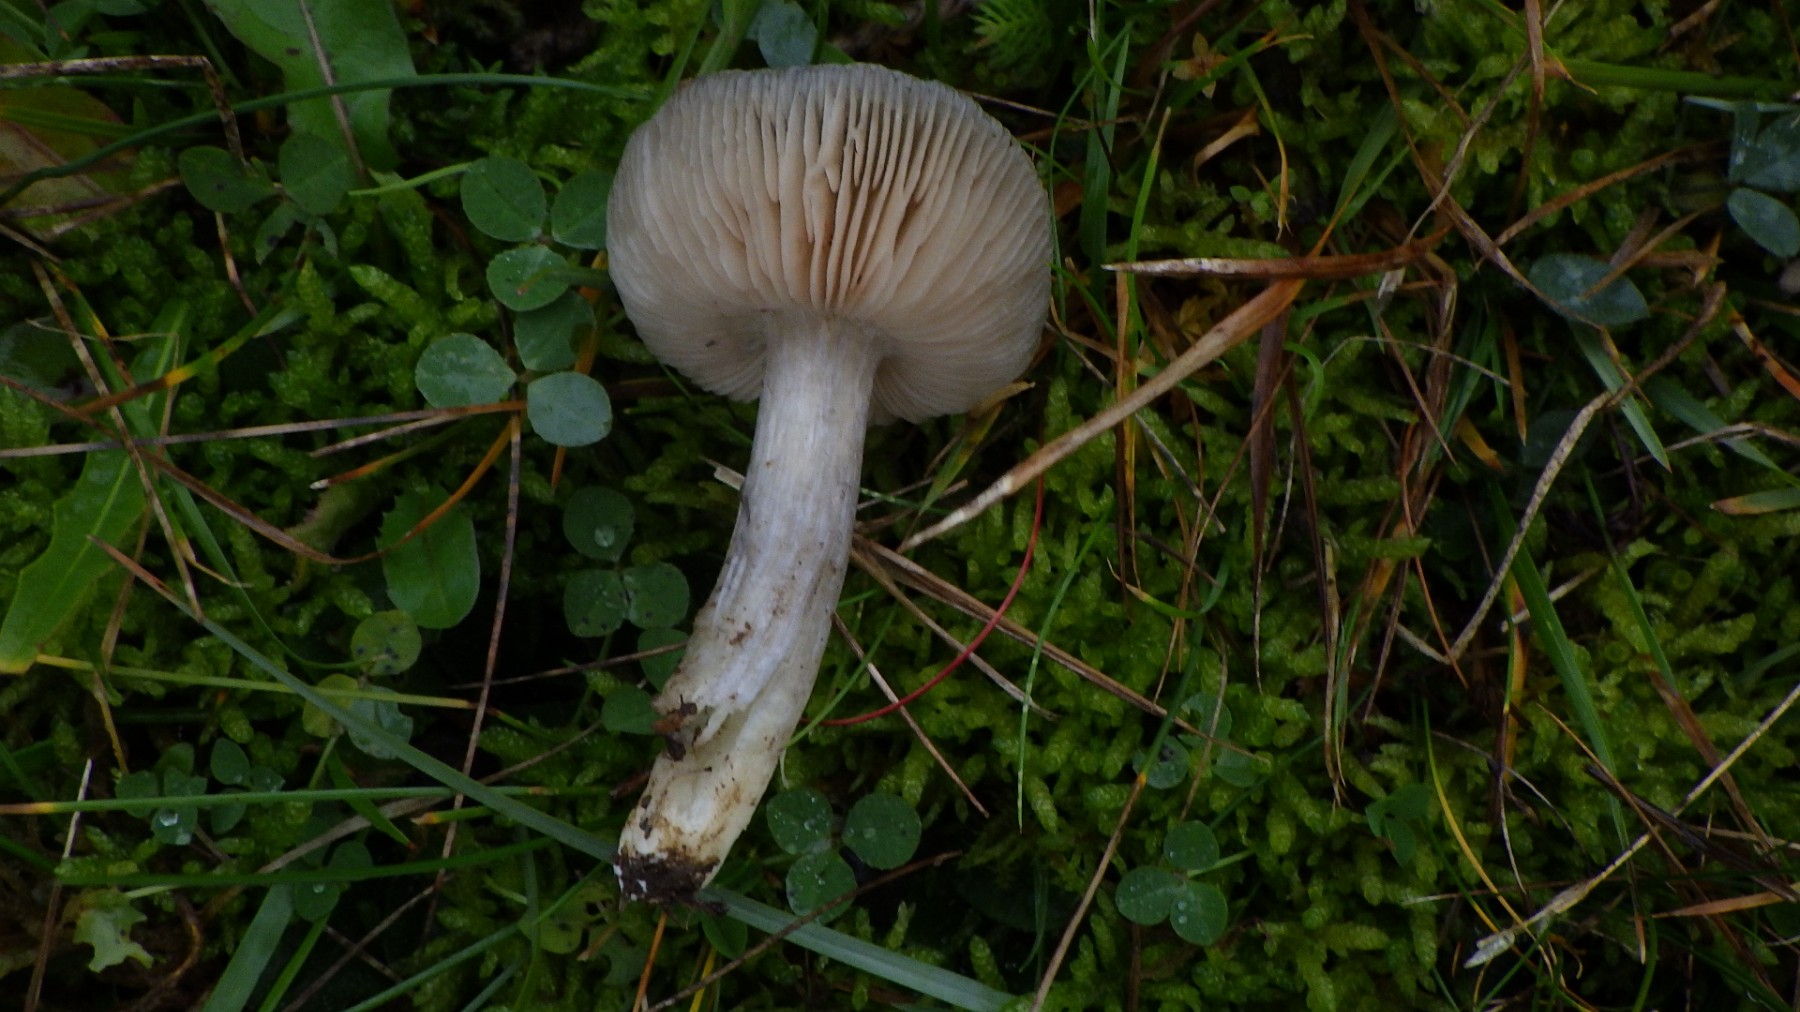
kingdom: Fungi
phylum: Basidiomycota
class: Agaricomycetes
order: Agaricales
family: Entolomataceae
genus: Entoloma
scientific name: Entoloma
